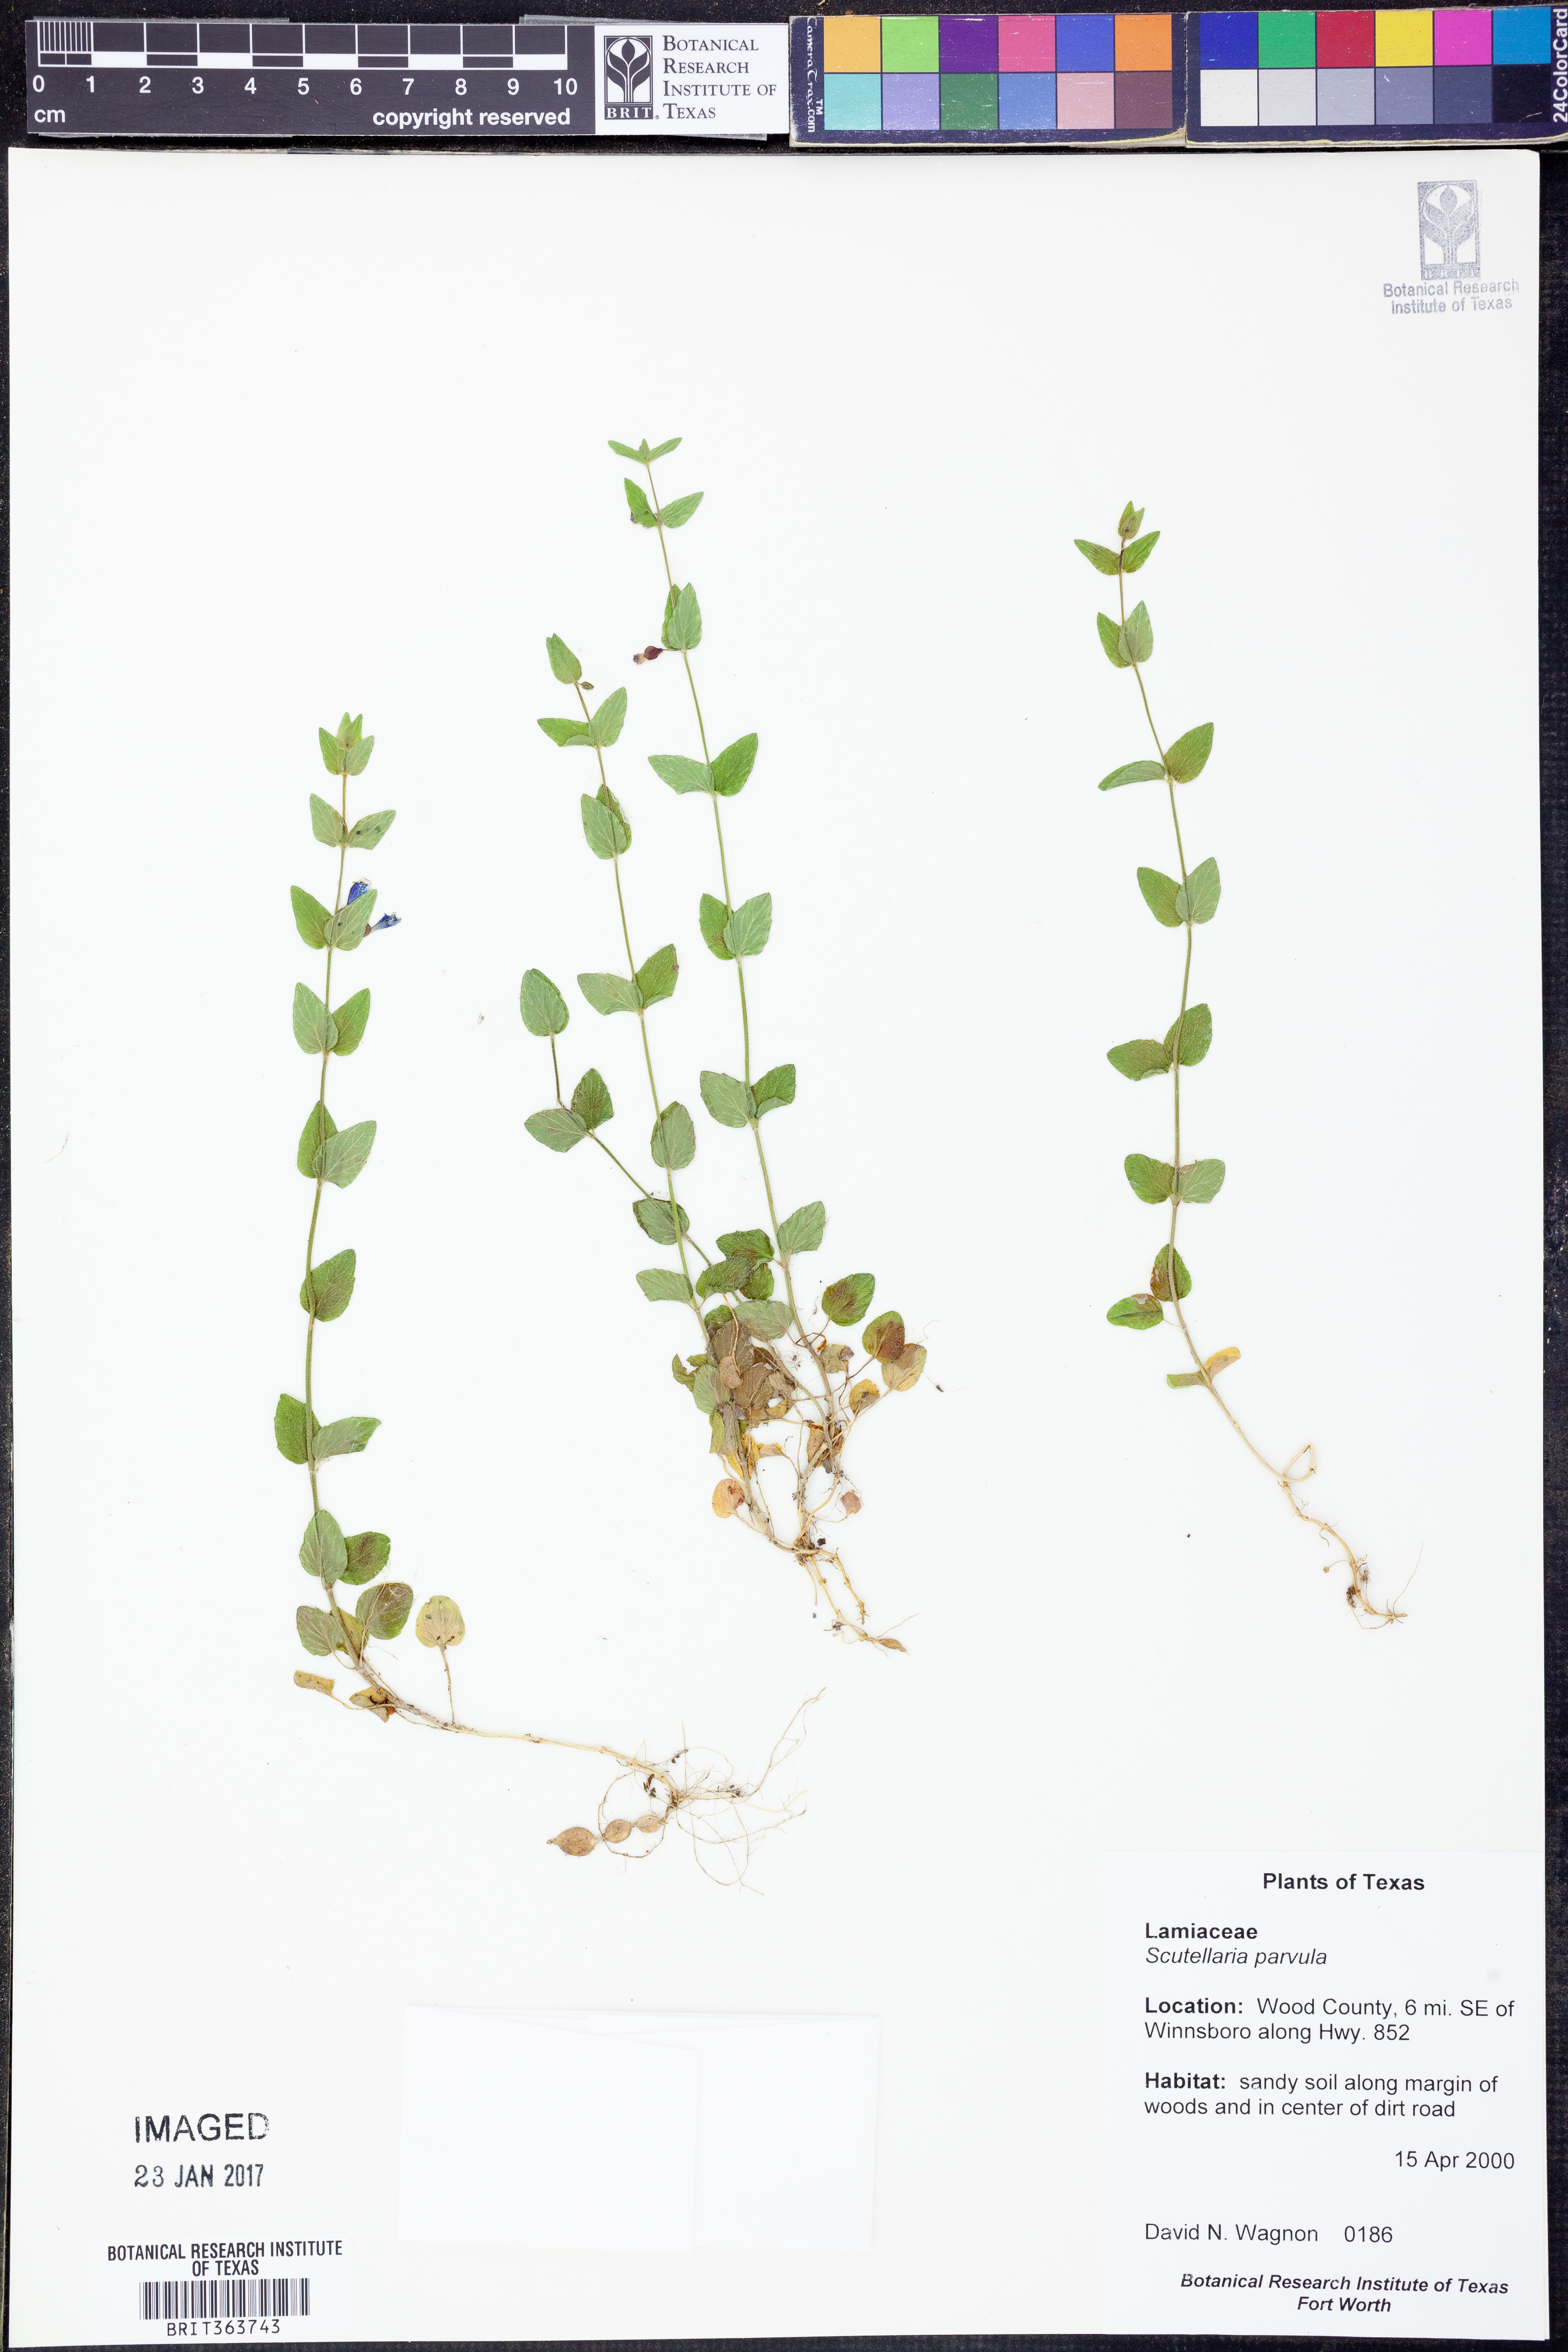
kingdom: Plantae
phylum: Tracheophyta
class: Magnoliopsida
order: Lamiales
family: Lamiaceae
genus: Scutellaria
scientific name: Scutellaria parvula
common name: Little scullcap
